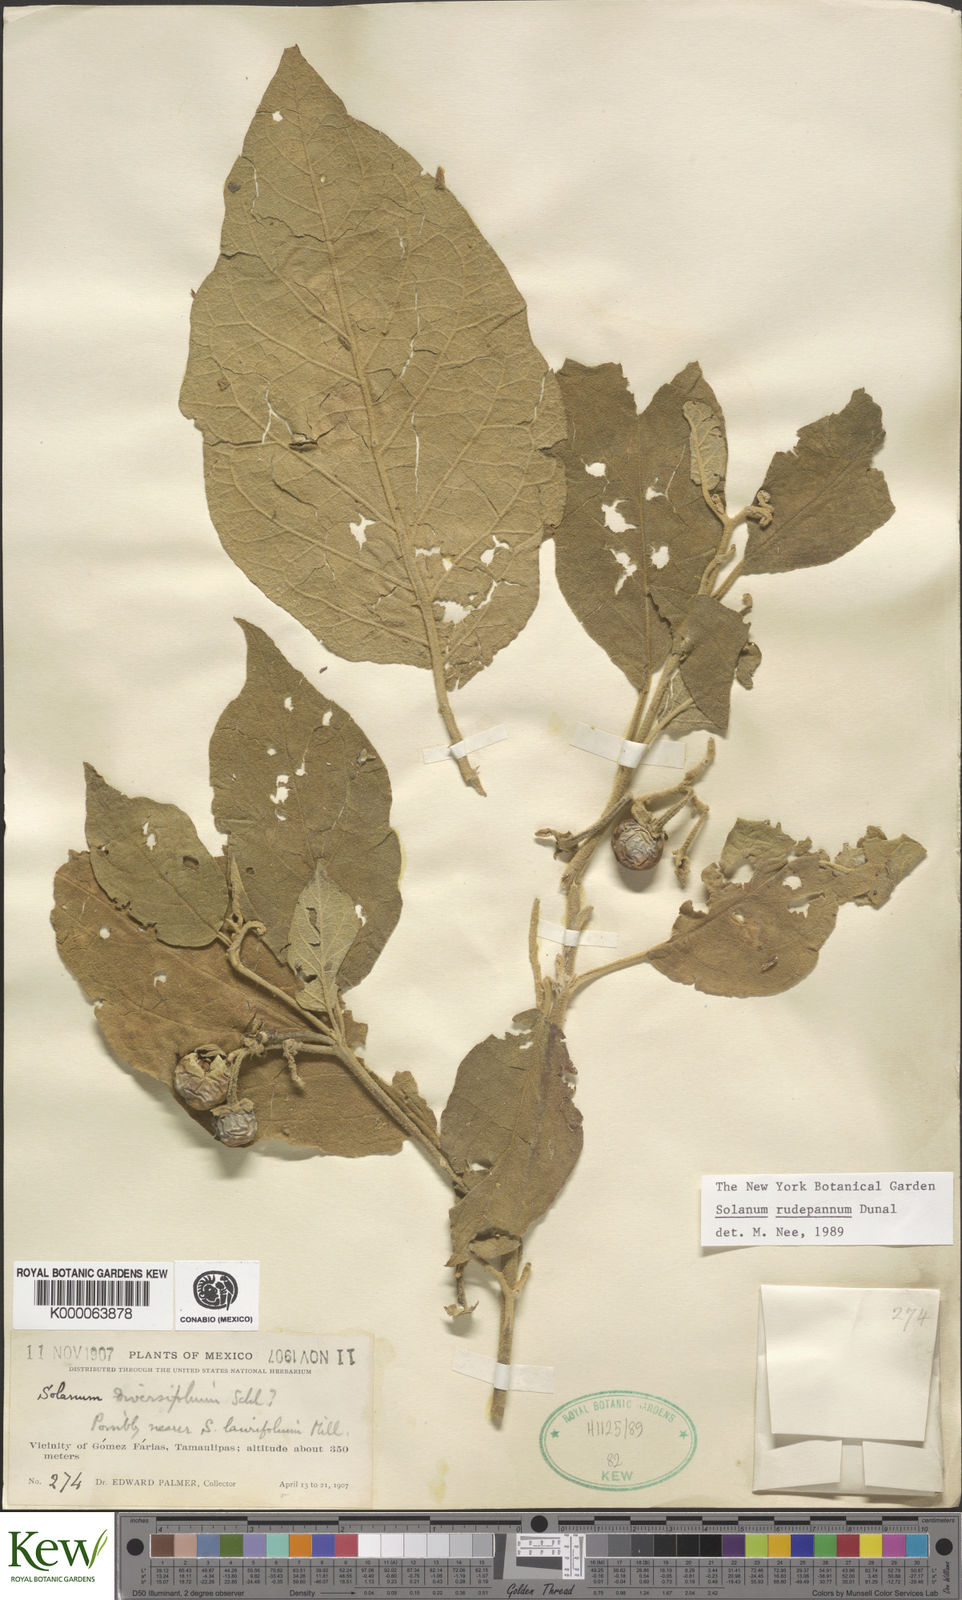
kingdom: Plantae
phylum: Tracheophyta
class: Magnoliopsida
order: Solanales
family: Solanaceae
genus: Solanum
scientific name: Solanum rude-pannum
